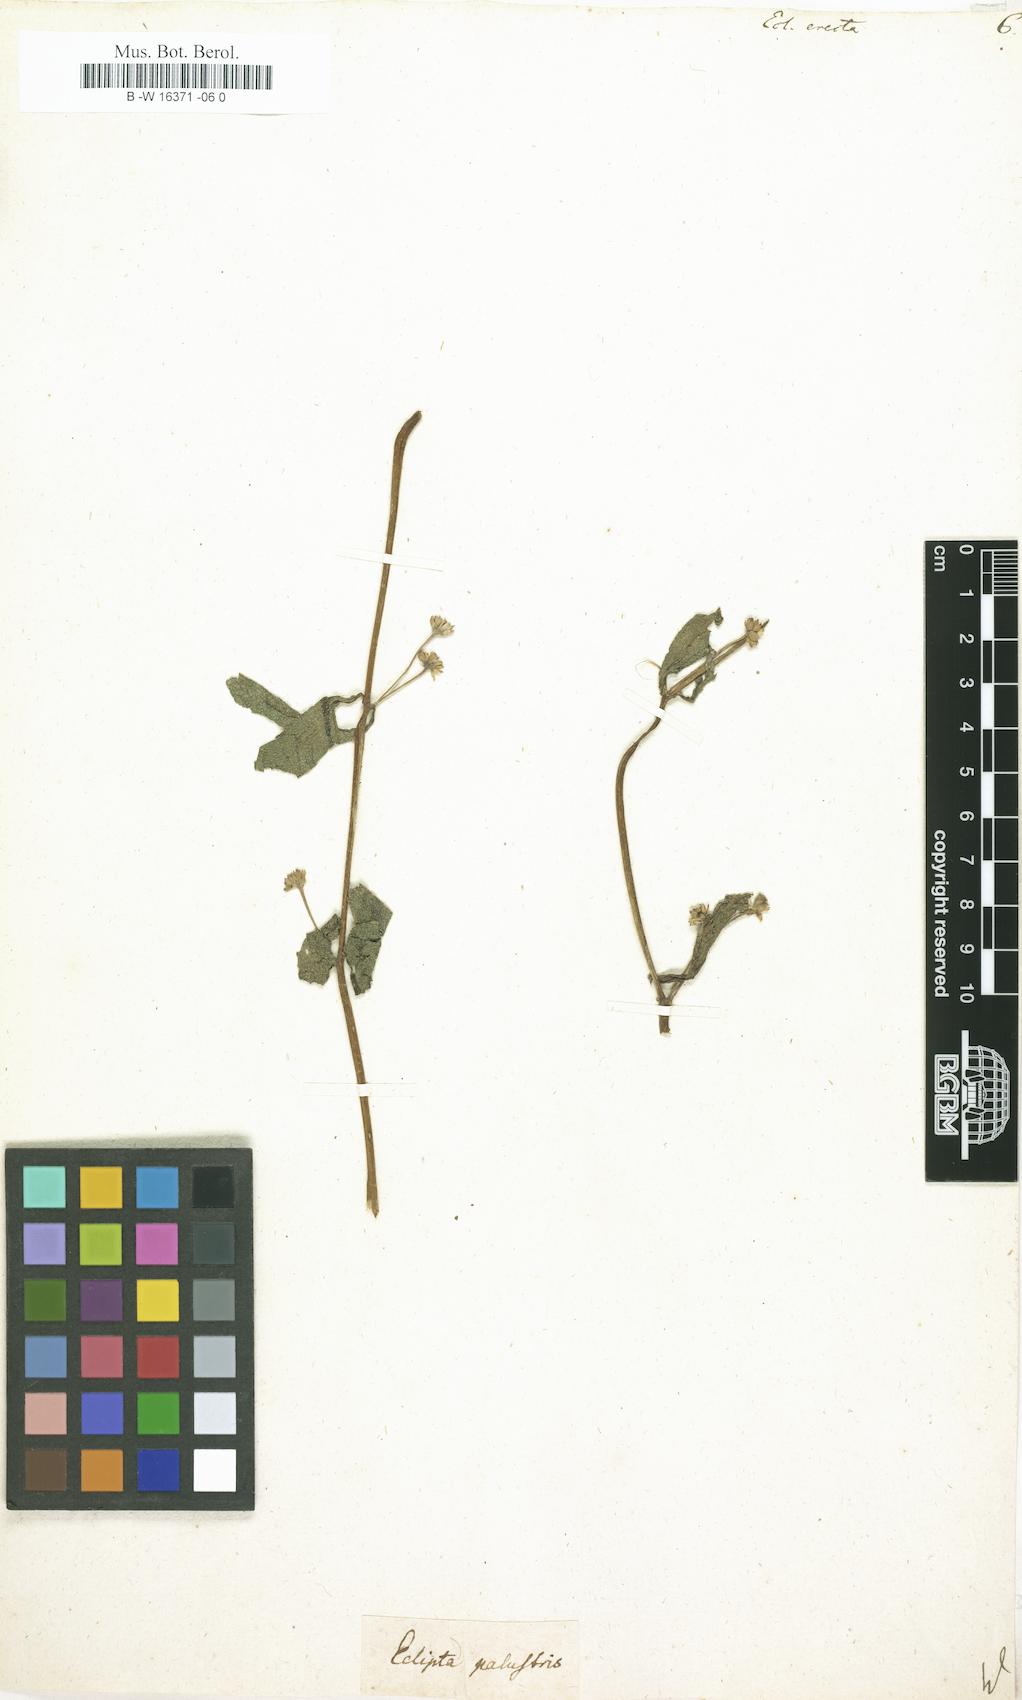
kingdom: Plantae
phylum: Tracheophyta
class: Magnoliopsida
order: Asterales
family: Asteraceae
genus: Eclipta
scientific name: Eclipta alba
